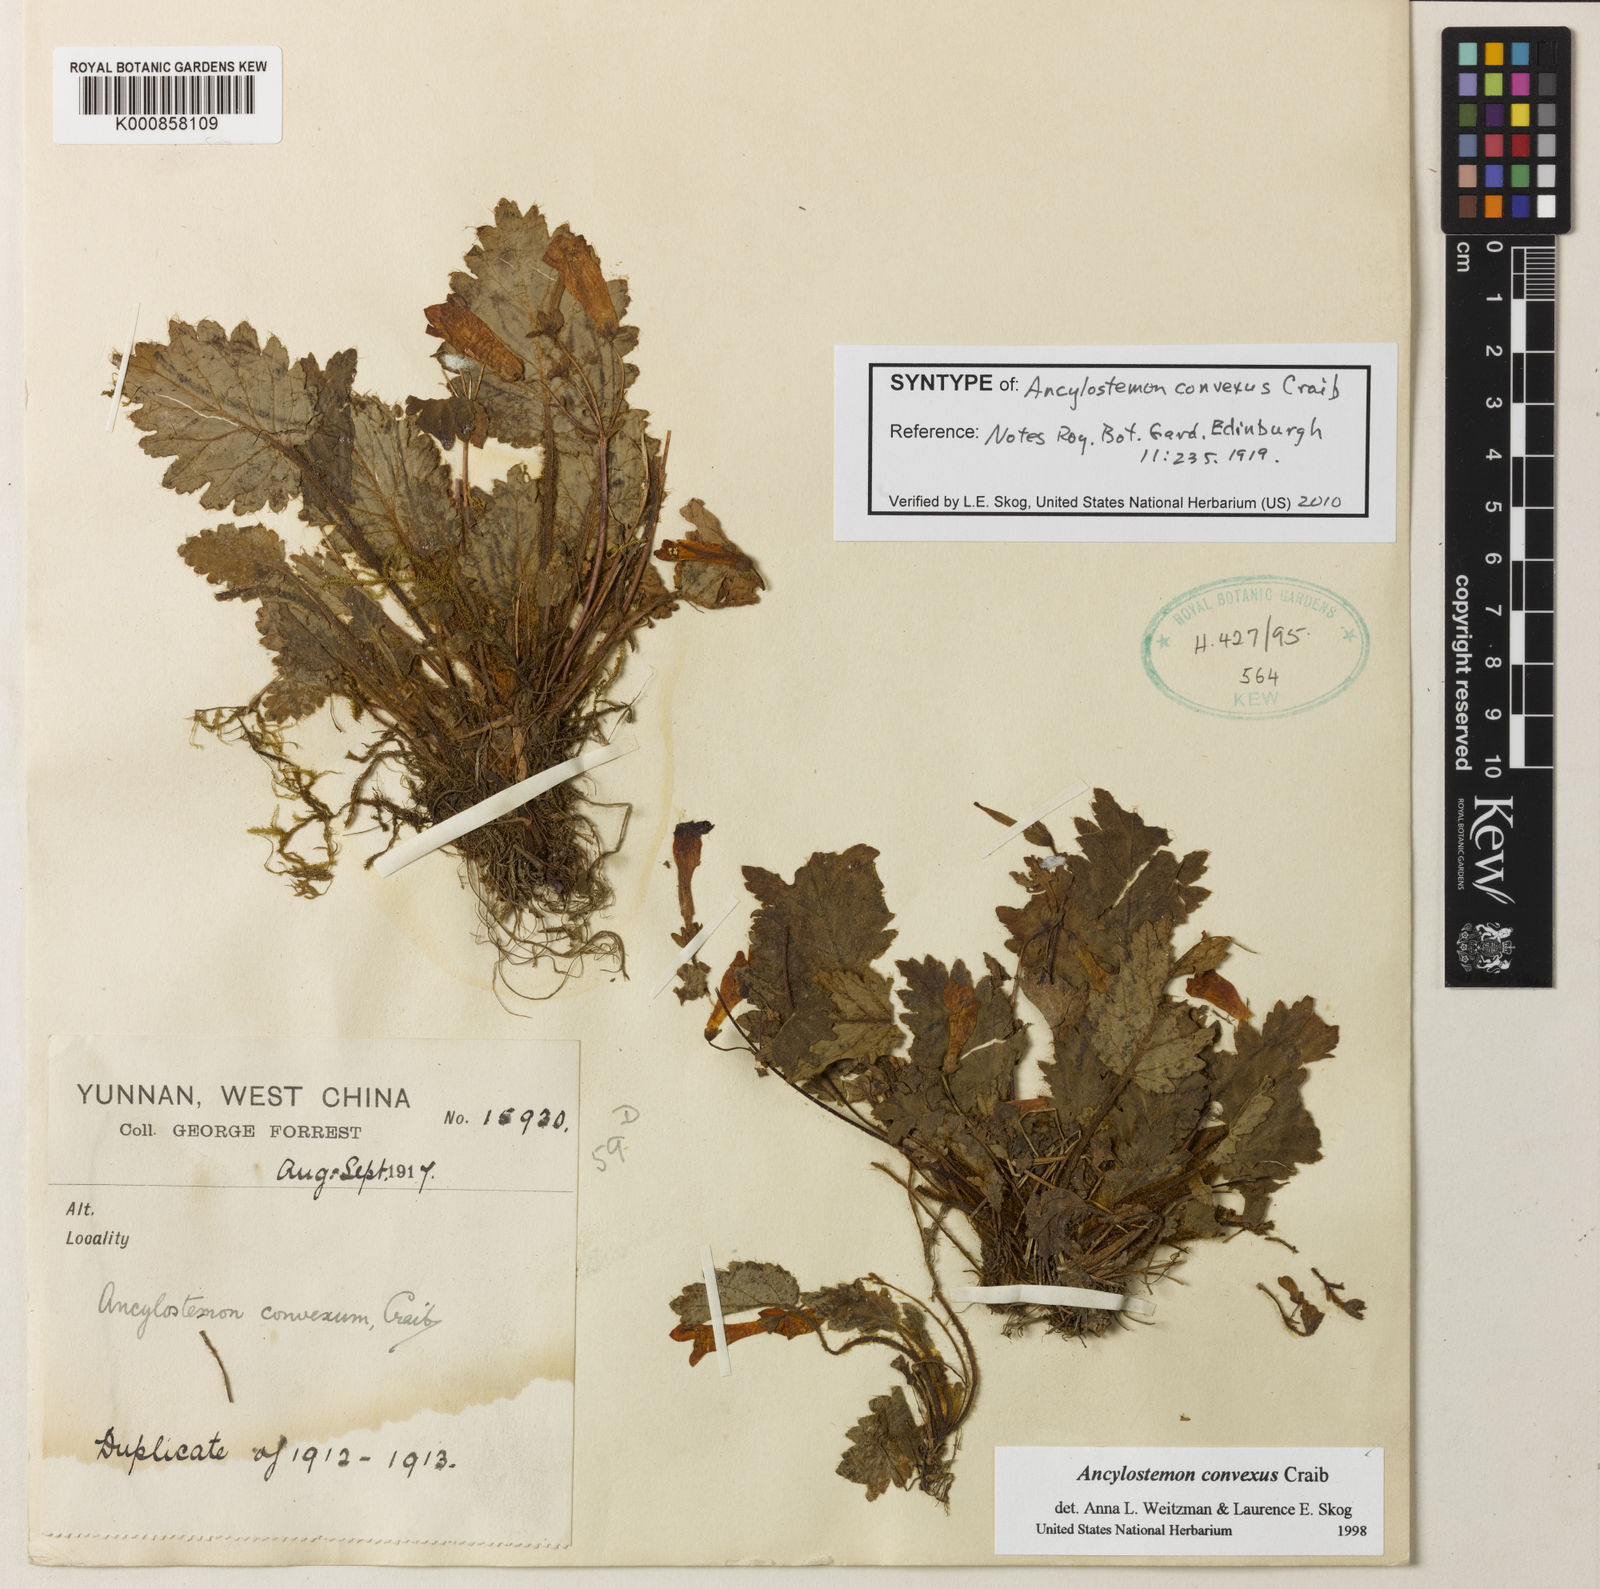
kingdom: Plantae
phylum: Tracheophyta
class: Magnoliopsida
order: Lamiales
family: Gesneriaceae
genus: Oreocharis
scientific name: Oreocharis
